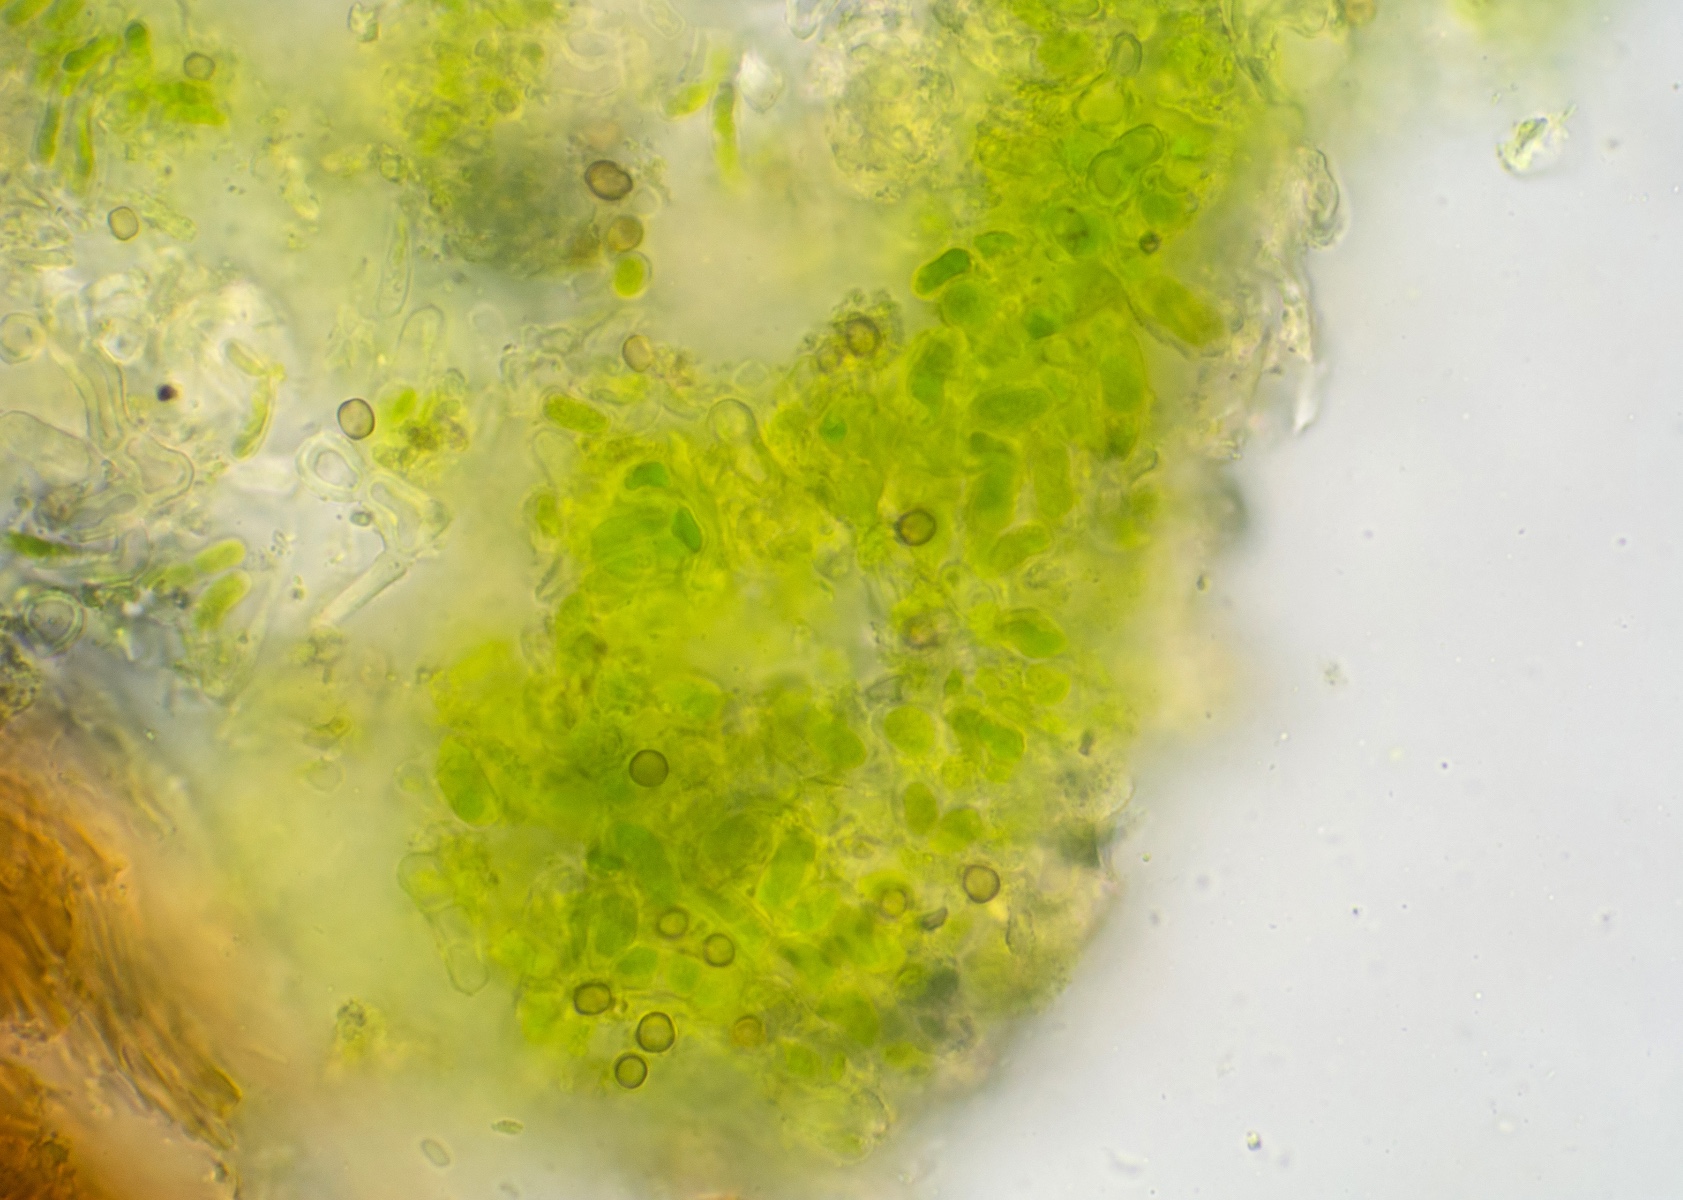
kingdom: Fungi
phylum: Ascomycota
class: Coniocybomycetes
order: Coniocybales
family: Coniocybaceae
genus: Chaenotheca
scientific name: Chaenotheca trichialis
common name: grå knappenålslav
